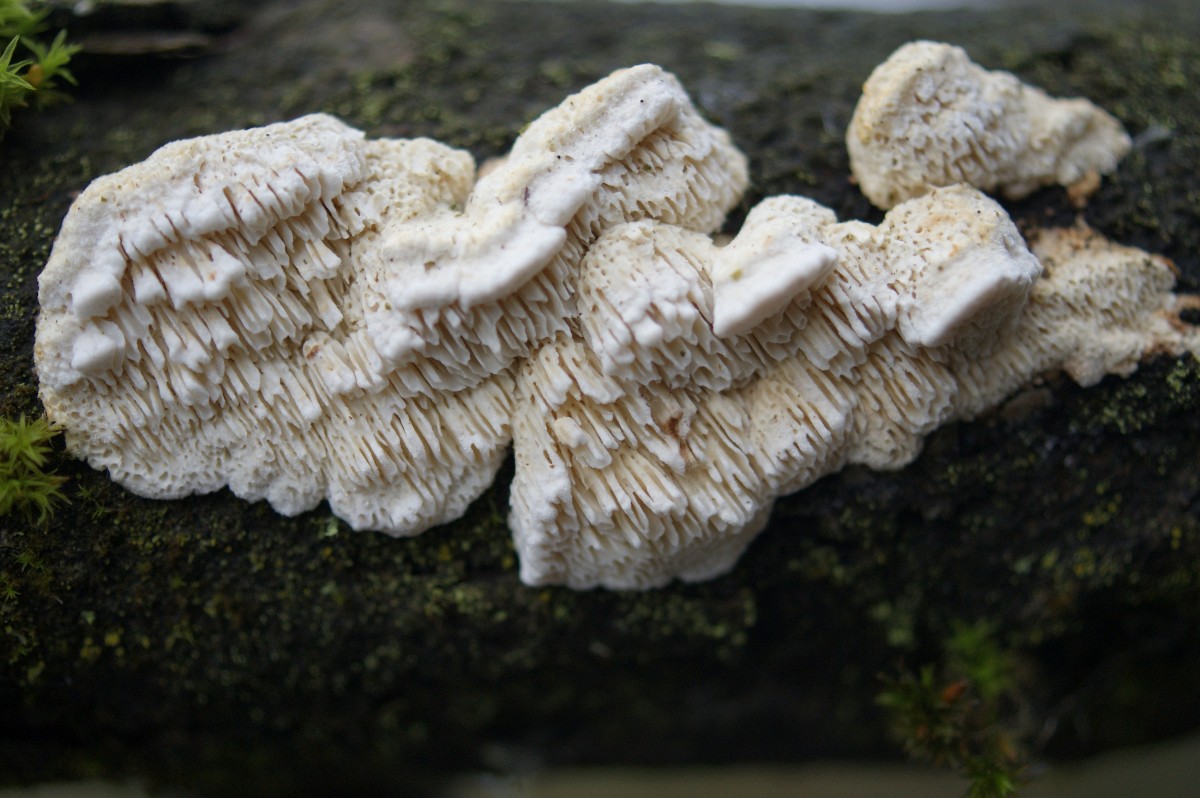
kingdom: Fungi
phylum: Basidiomycota
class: Agaricomycetes
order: Polyporales
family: Fomitopsidaceae
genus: Brunneoporus
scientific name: Brunneoporus kuzyanus
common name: brunlig sejporesvamp
